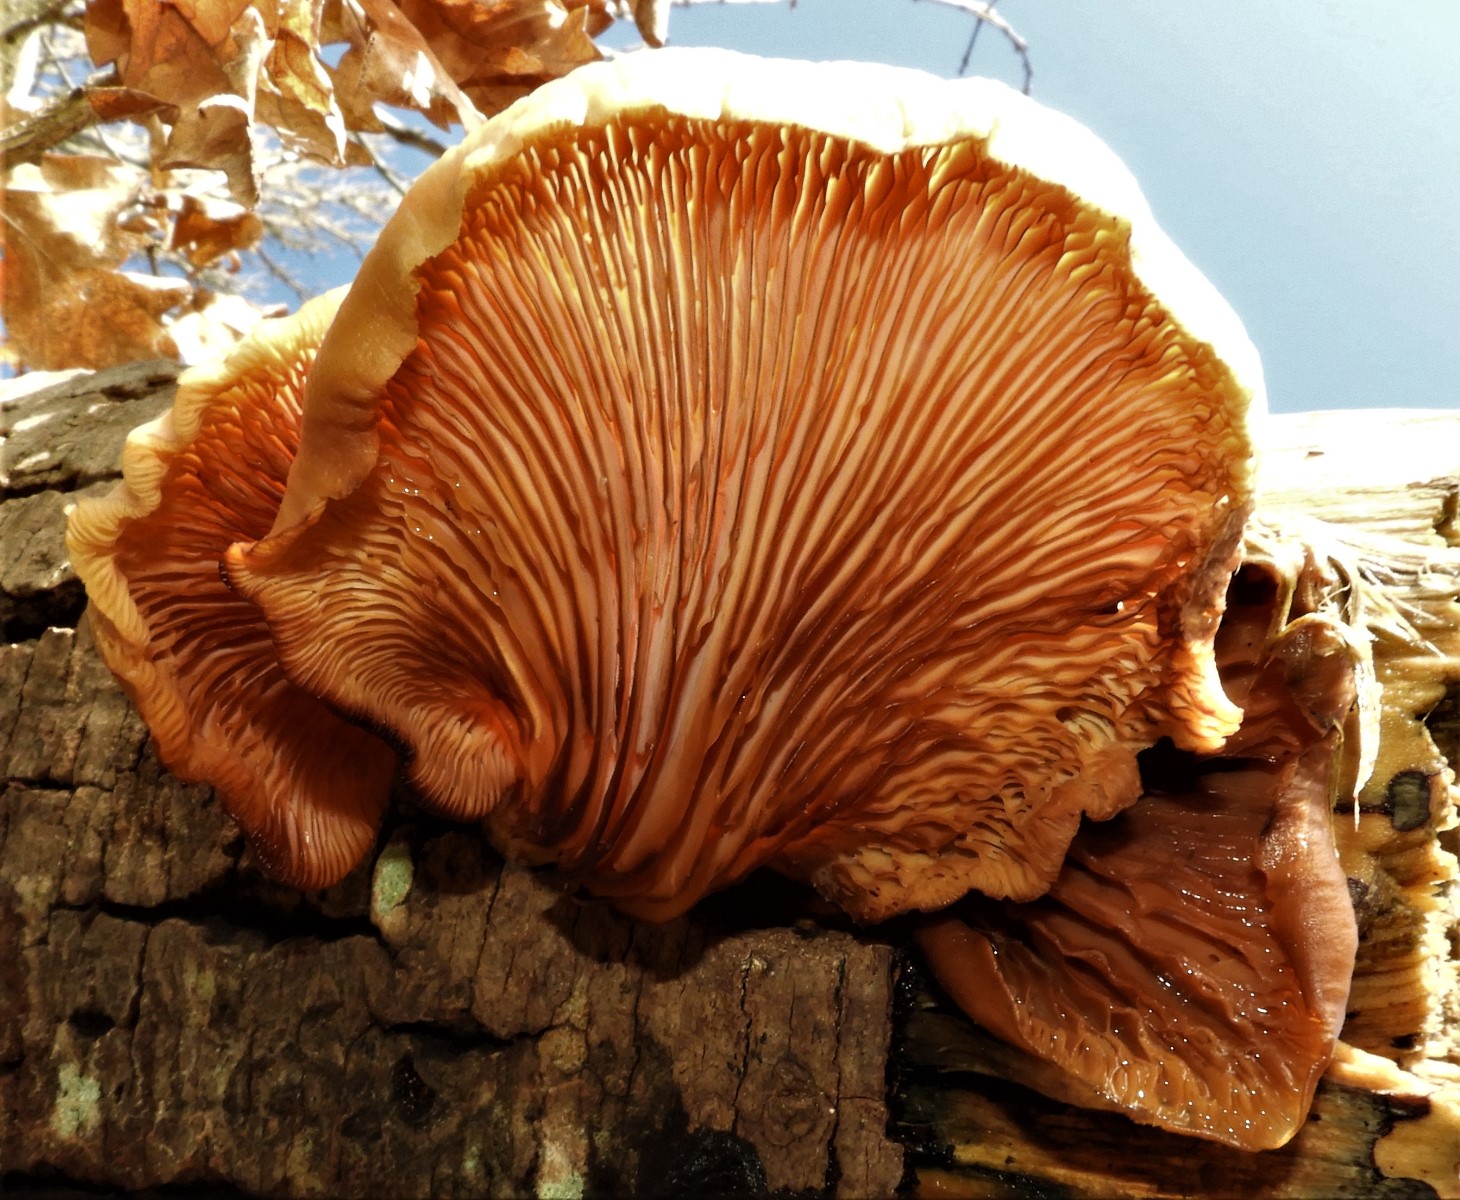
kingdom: Fungi
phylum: Basidiomycota
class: Agaricomycetes
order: Agaricales
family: Pleurotaceae
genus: Pleurotus
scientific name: Pleurotus ostreatus
